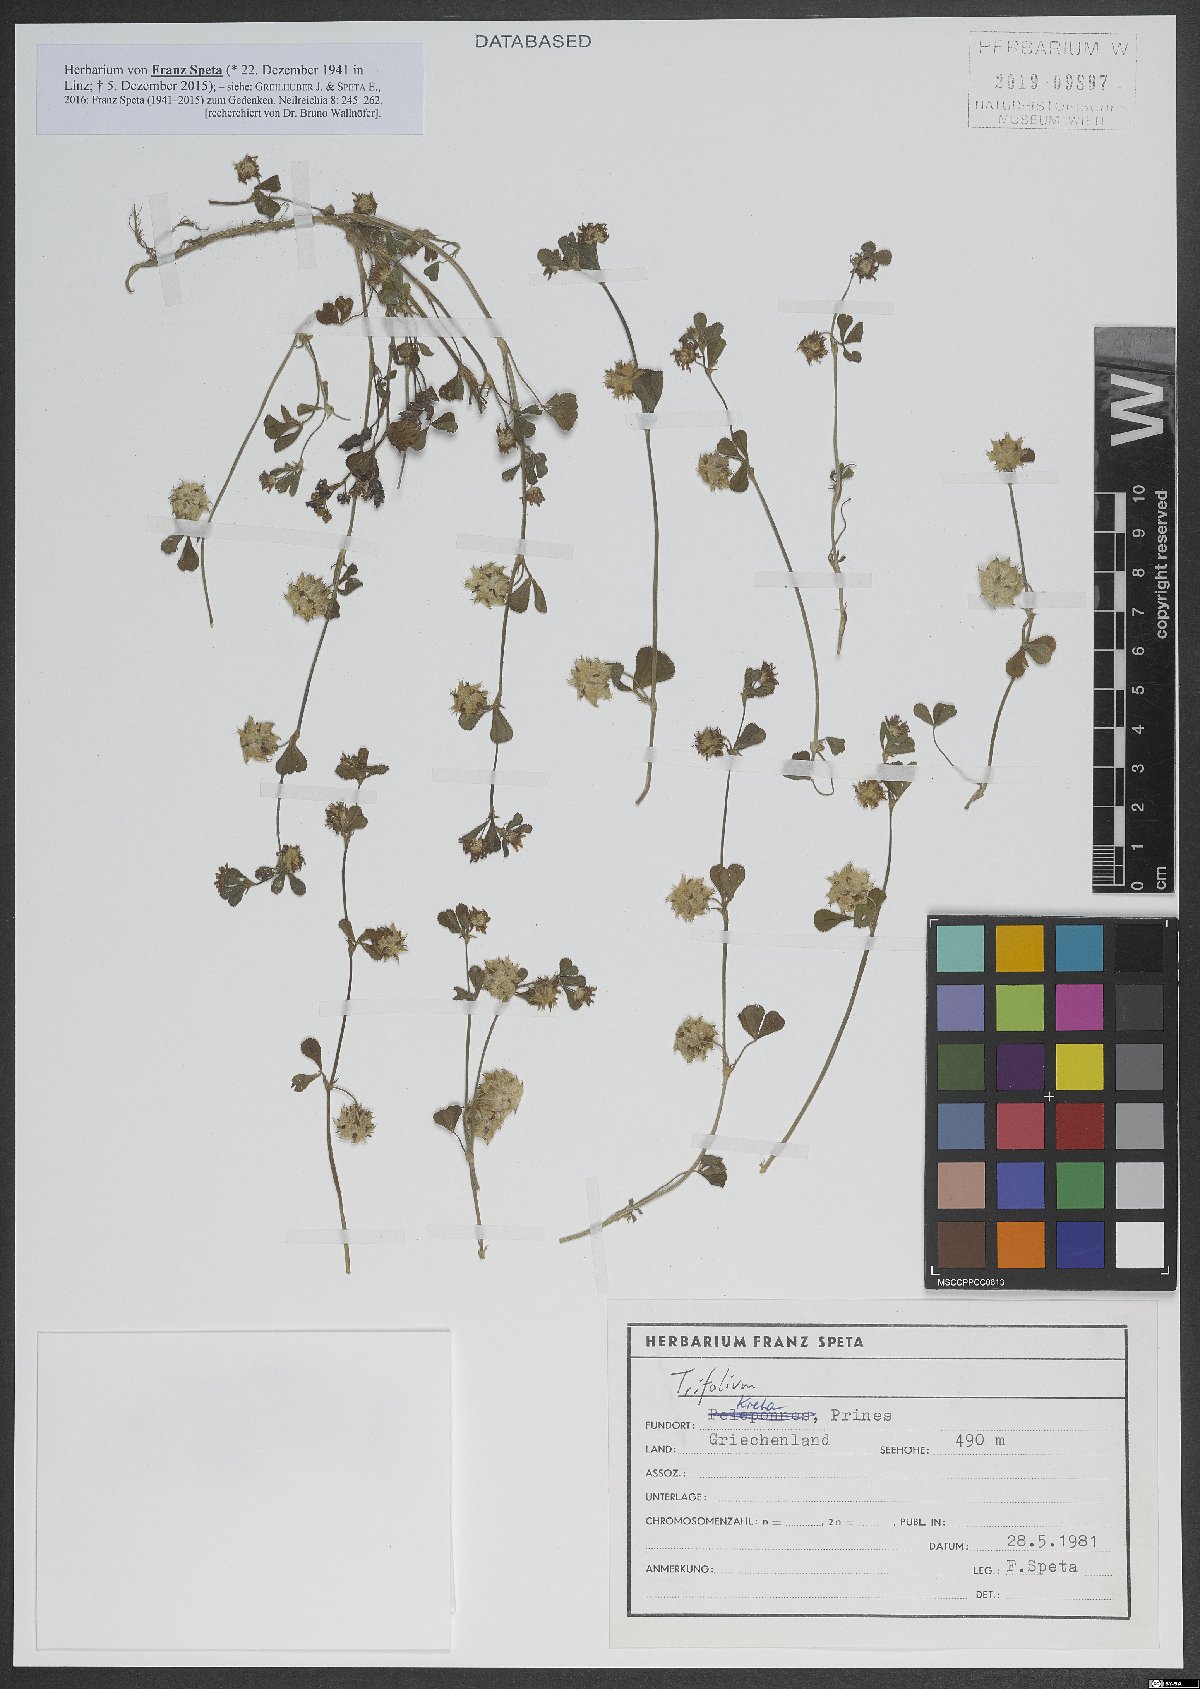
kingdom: Plantae
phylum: Tracheophyta
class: Magnoliopsida
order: Fabales
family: Fabaceae
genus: Trifolium
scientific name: Trifolium resupinatum
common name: Reversed clover
